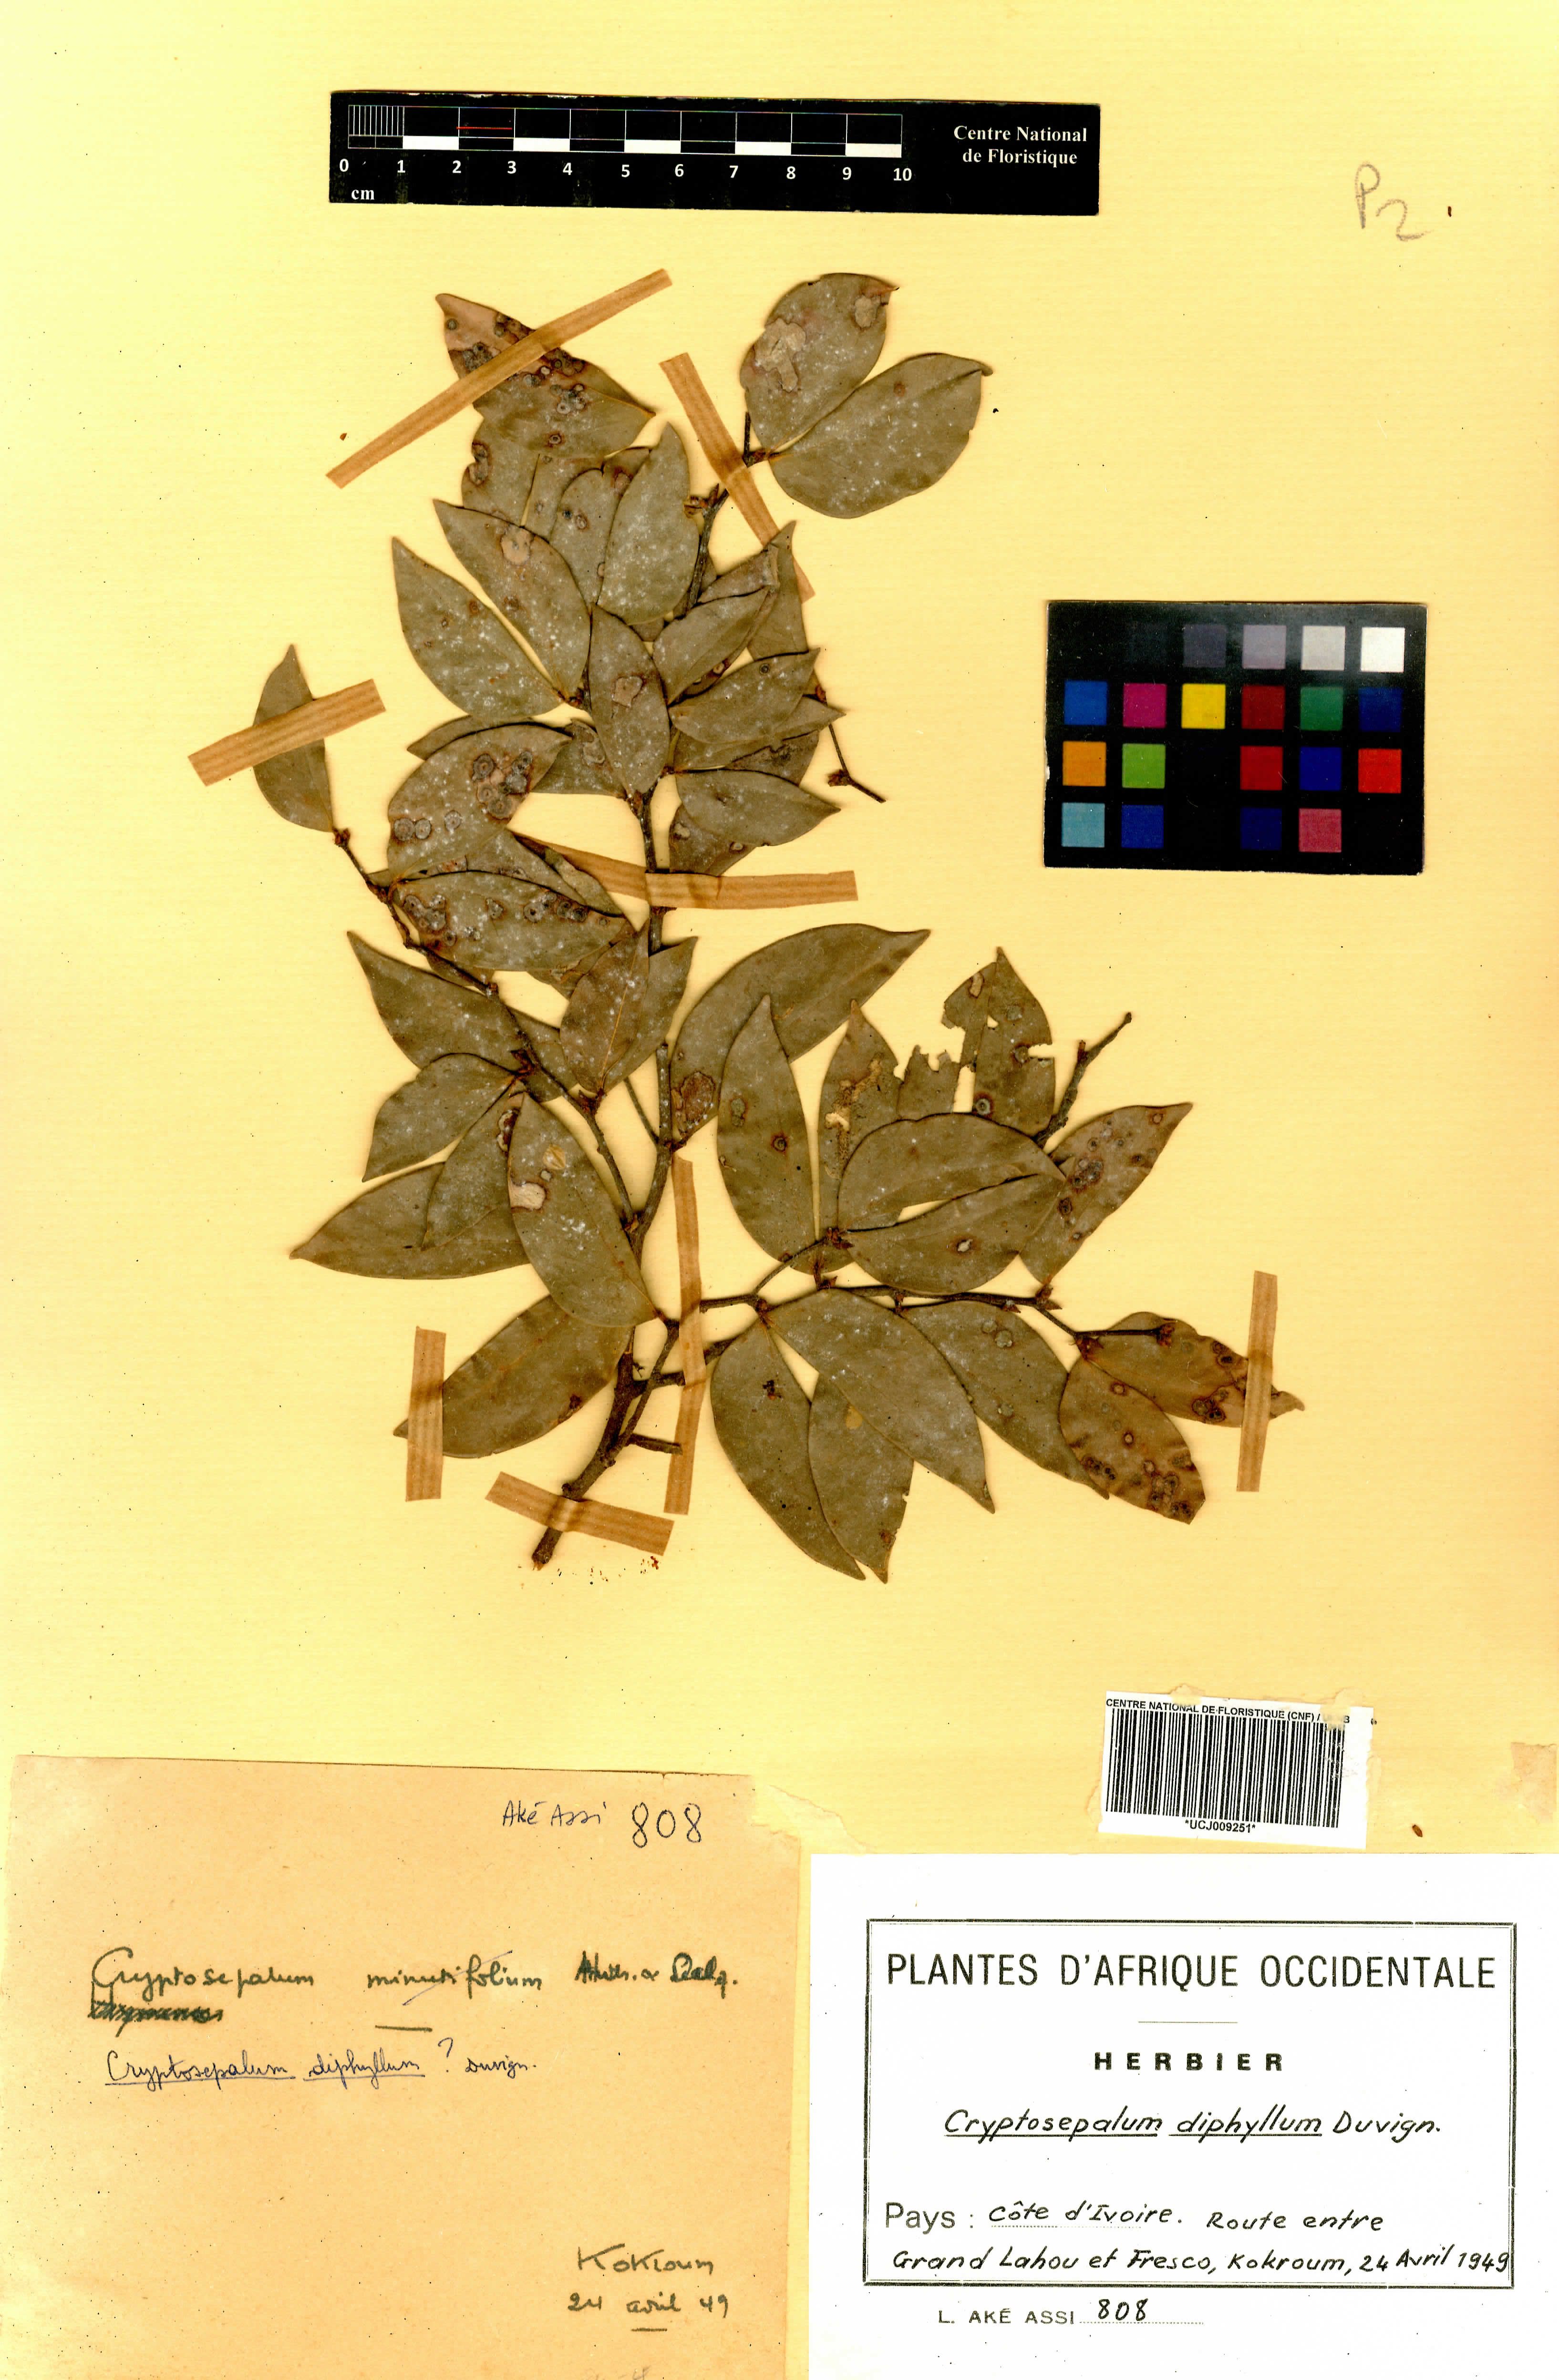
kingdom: Plantae
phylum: Tracheophyta
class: Magnoliopsida
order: Fabales
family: Fabaceae
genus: Cryptosepalum
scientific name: Cryptosepalum diphyllum
